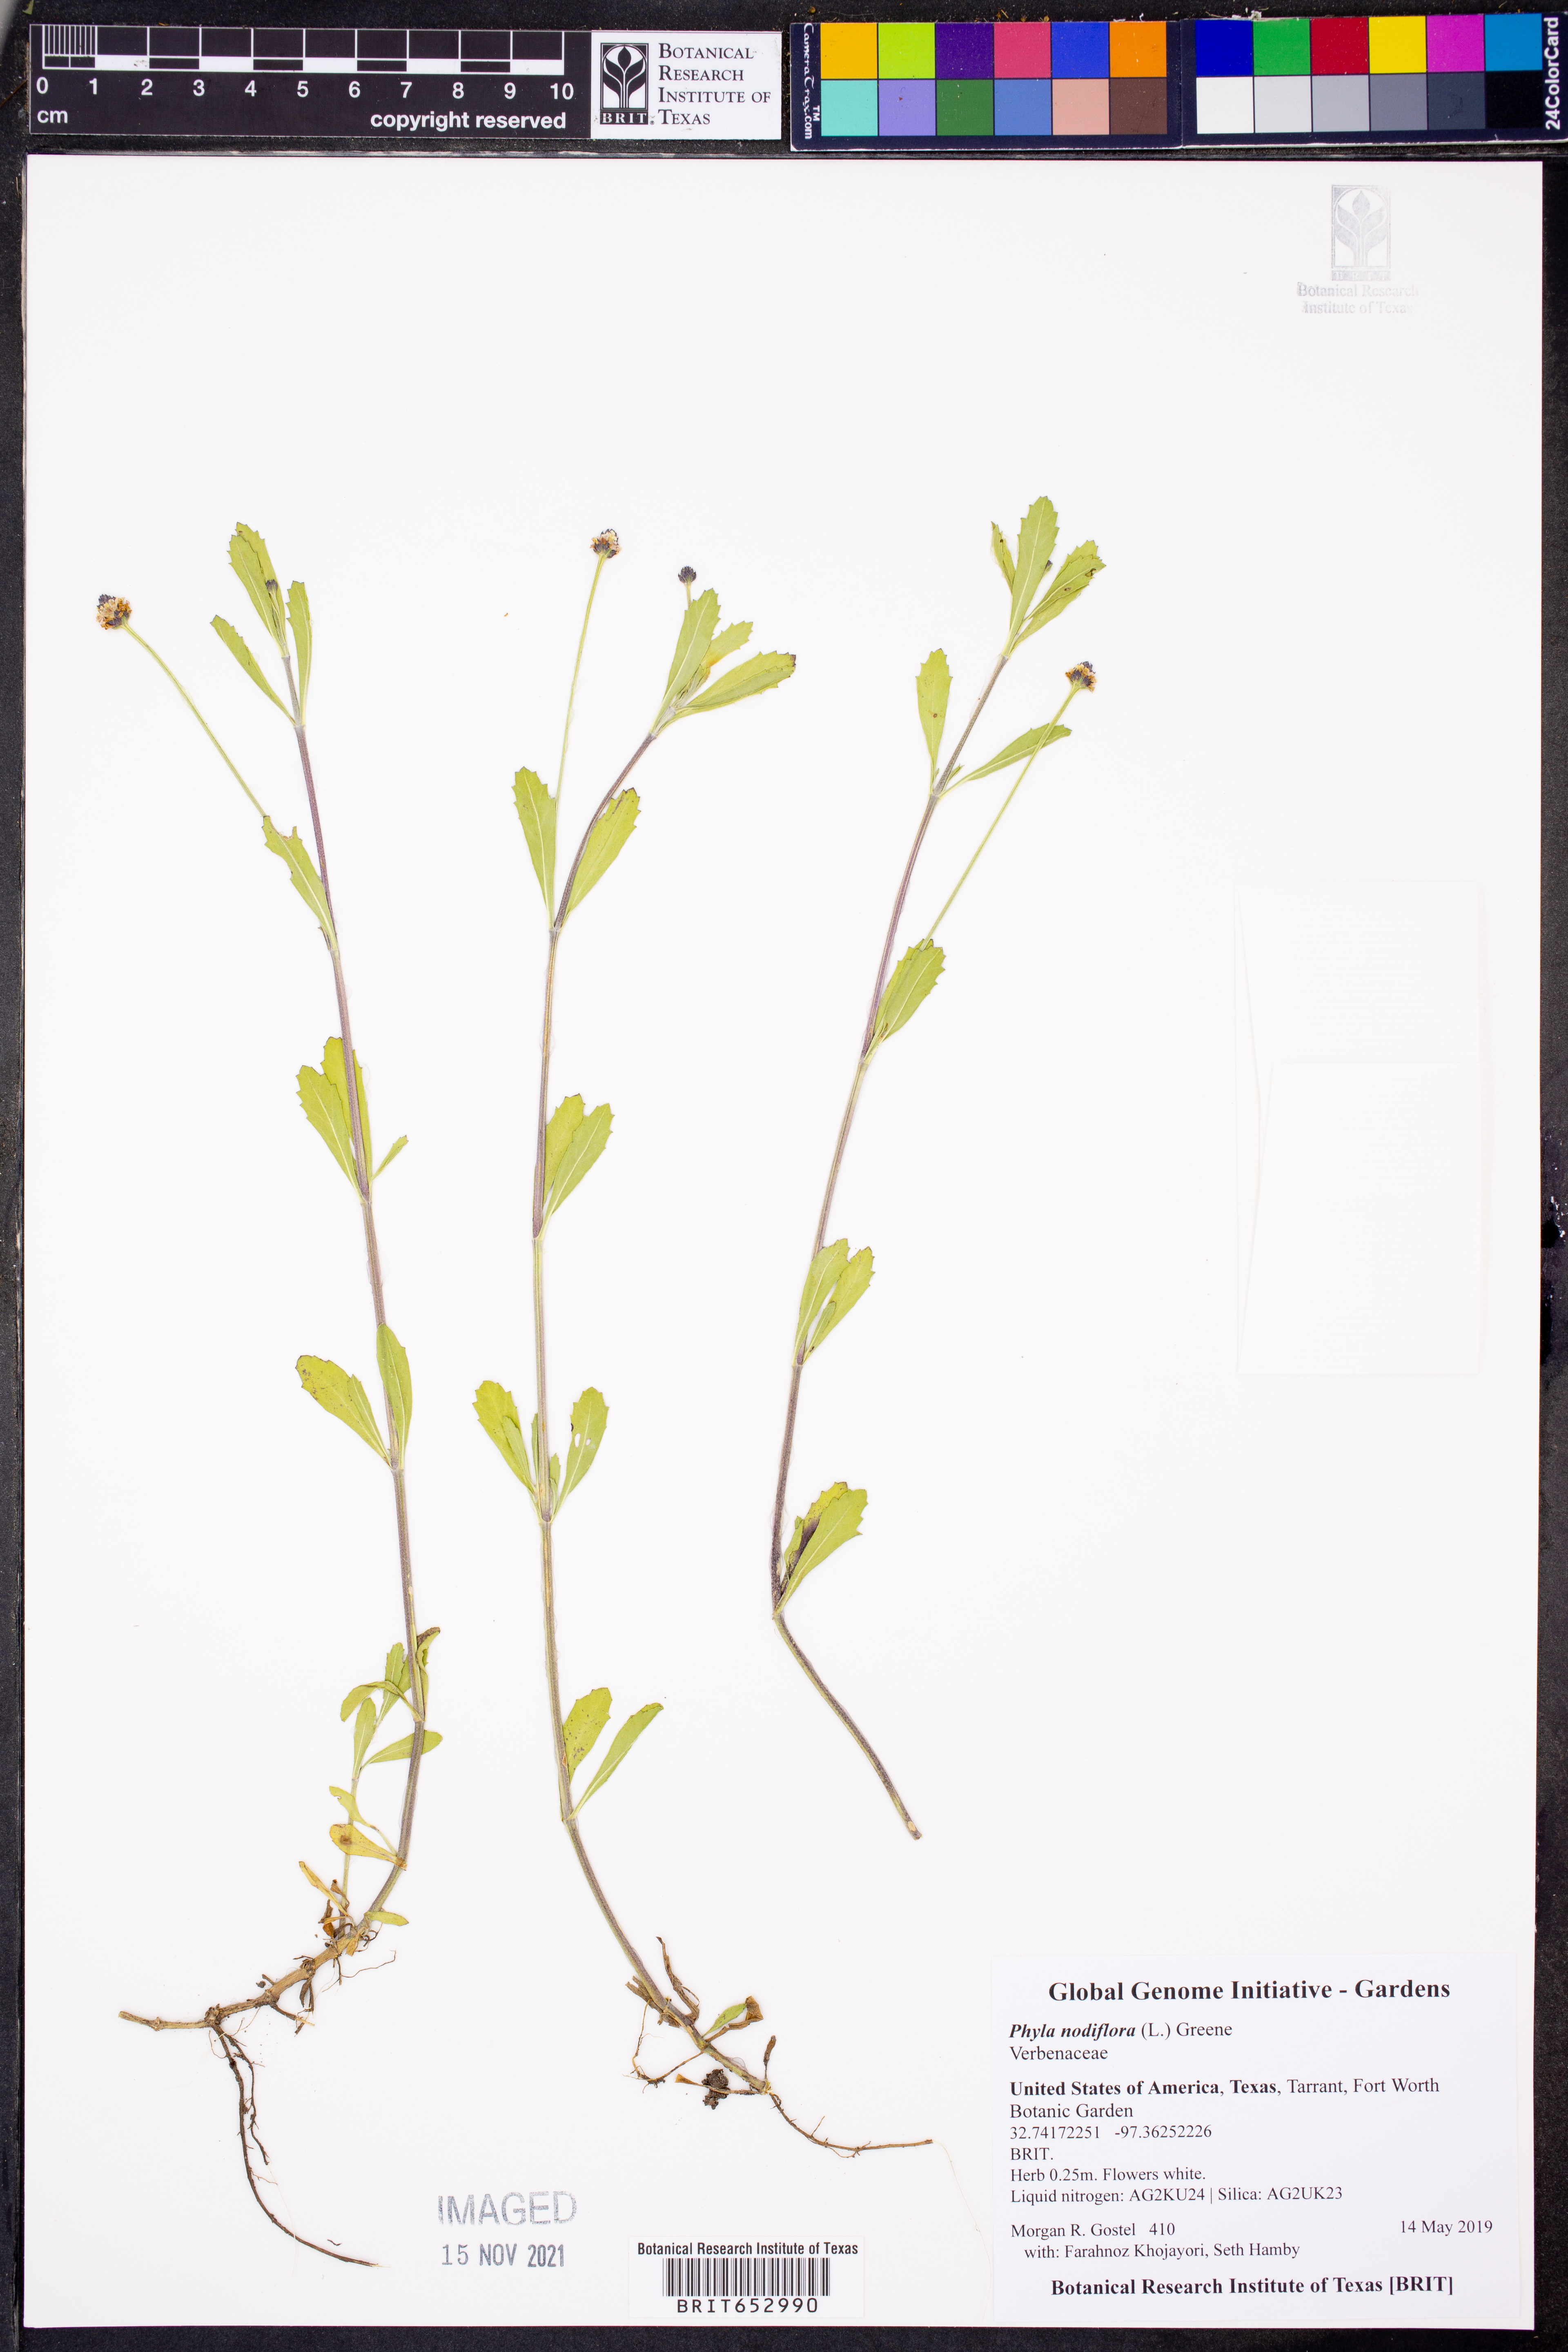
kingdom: Plantae
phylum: Tracheophyta
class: Magnoliopsida
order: Lamiales
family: Verbenaceae
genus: Phyla
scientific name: Phyla nodiflora
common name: Frogfruit
